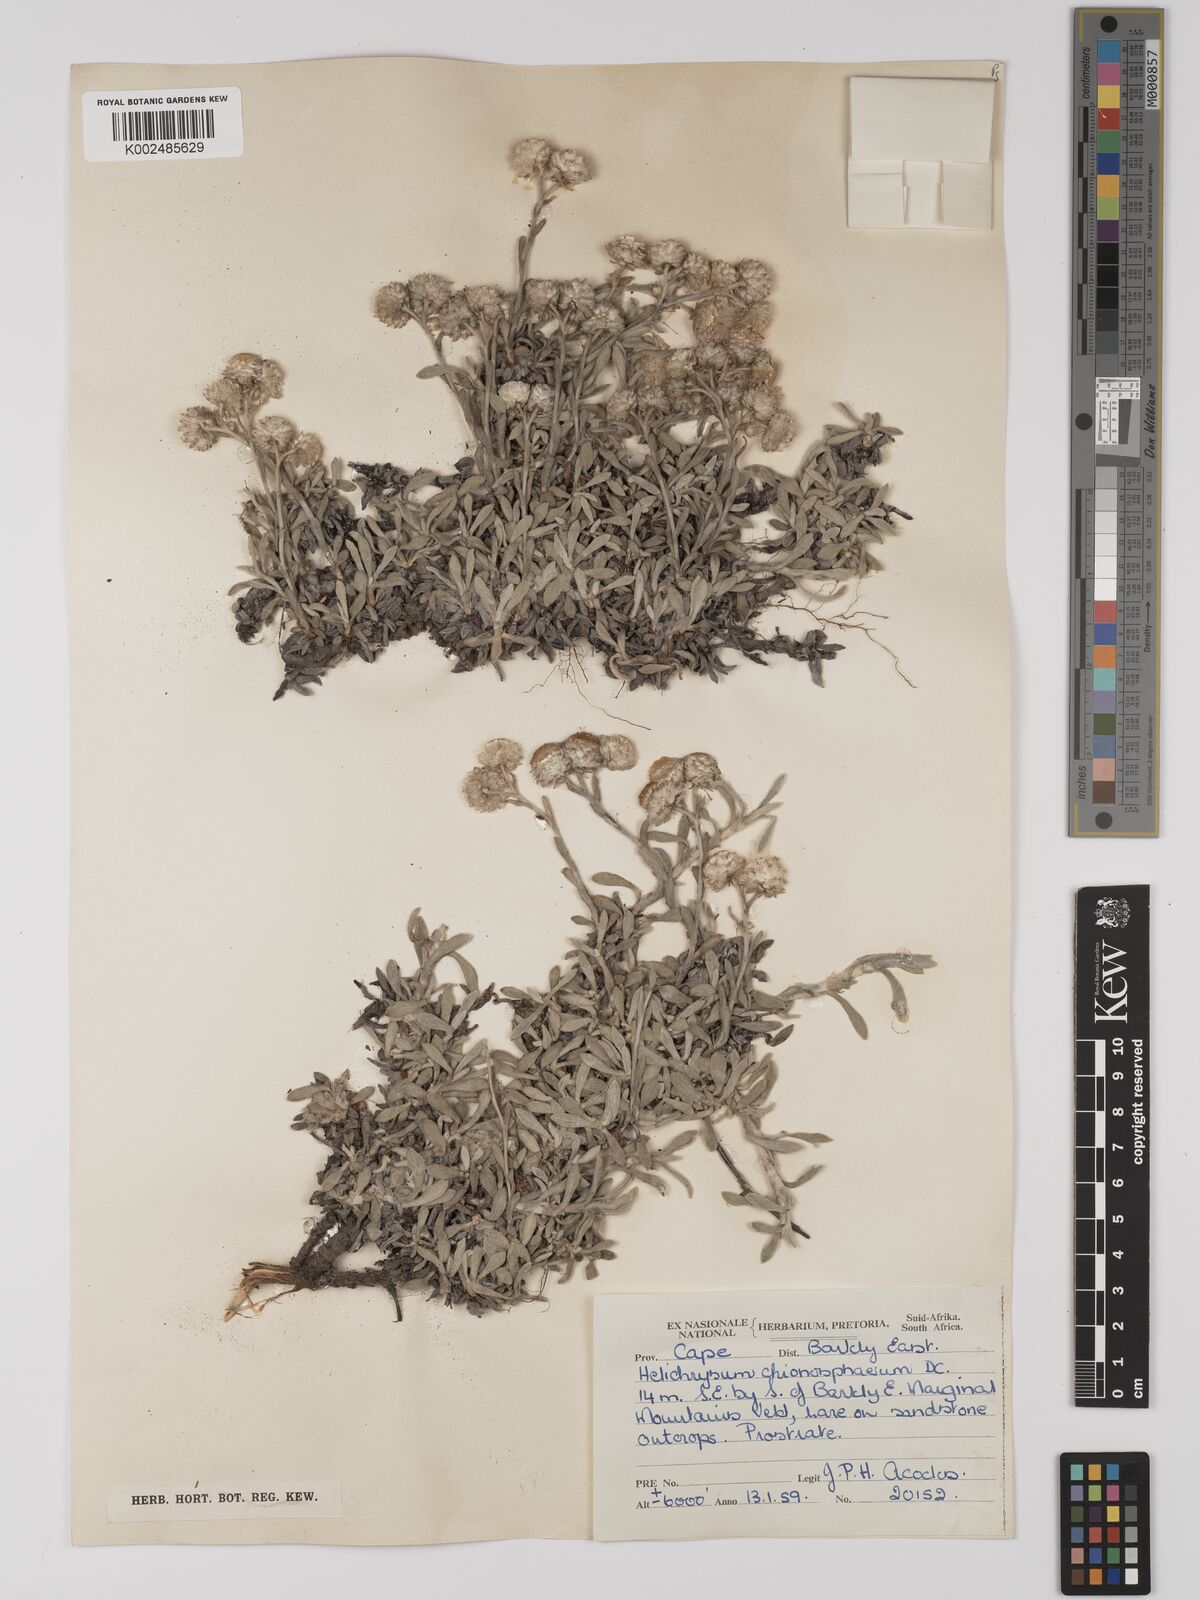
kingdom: Plantae
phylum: Tracheophyta
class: Magnoliopsida
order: Asterales
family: Asteraceae
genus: Helichrysum
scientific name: Helichrysum chionosphaerum
